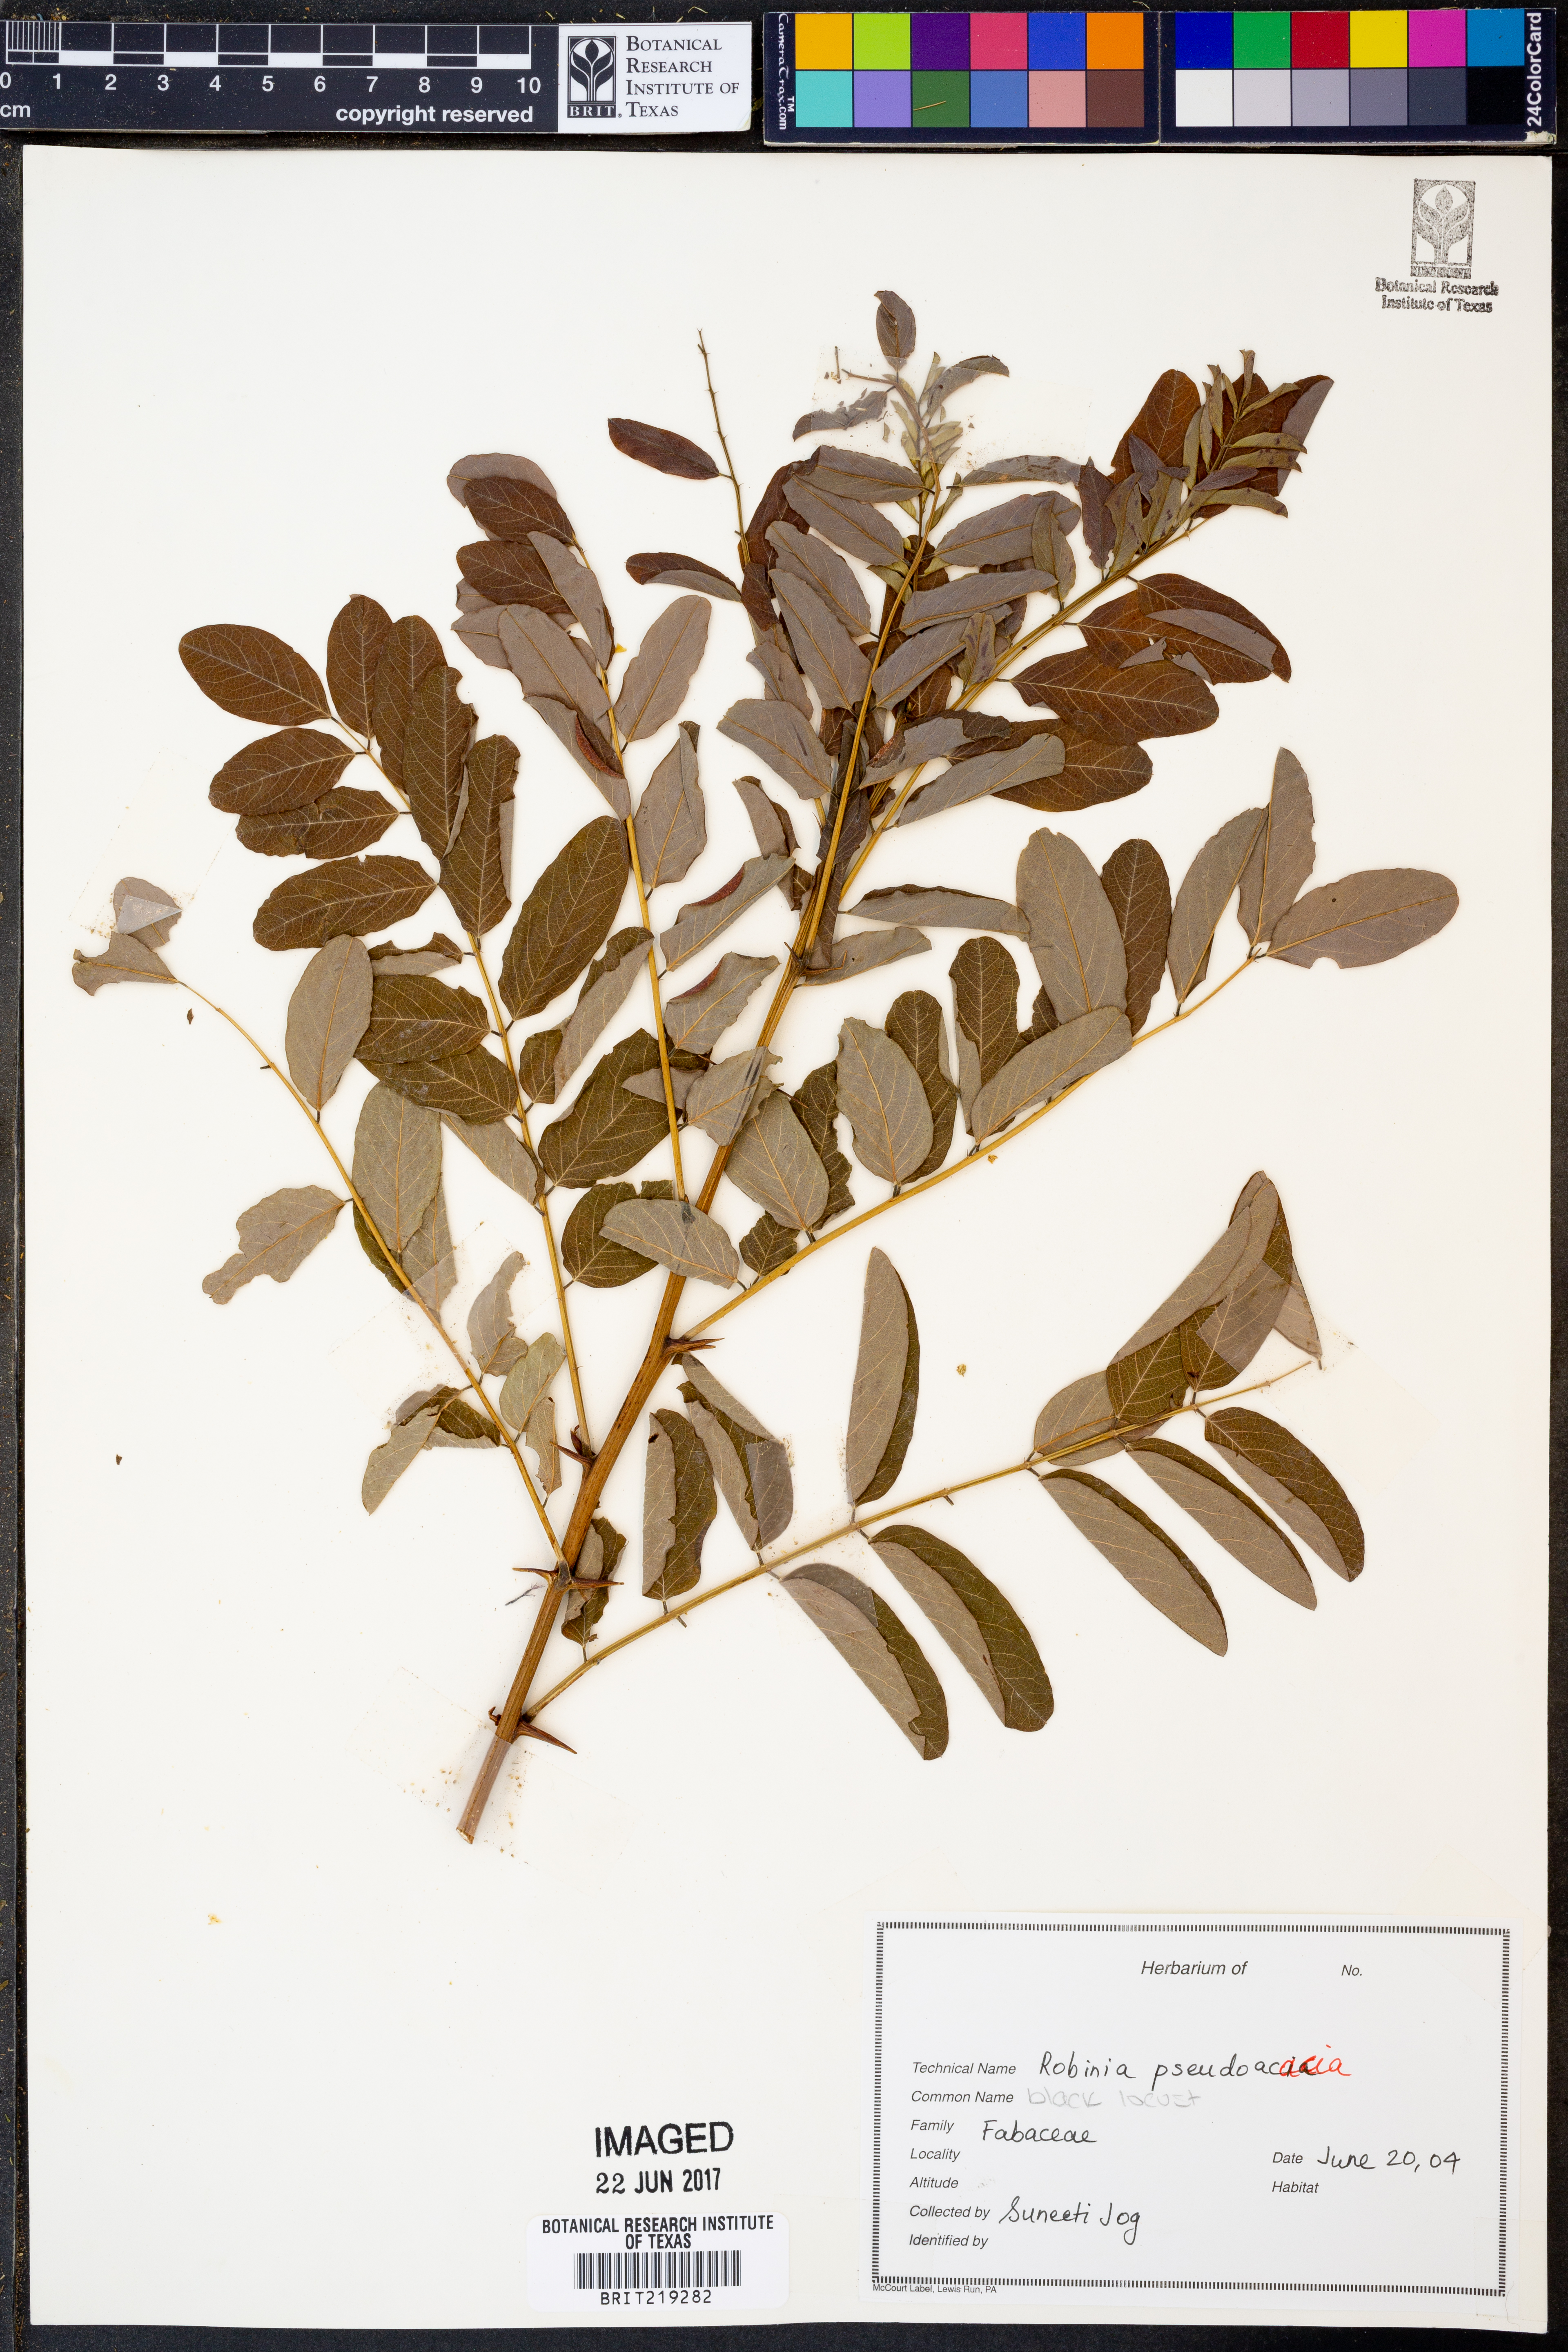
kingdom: Plantae
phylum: Tracheophyta
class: Magnoliopsida
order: Fabales
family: Fabaceae
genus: Robinia
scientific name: Robinia pseudoacacia
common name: Black locust
